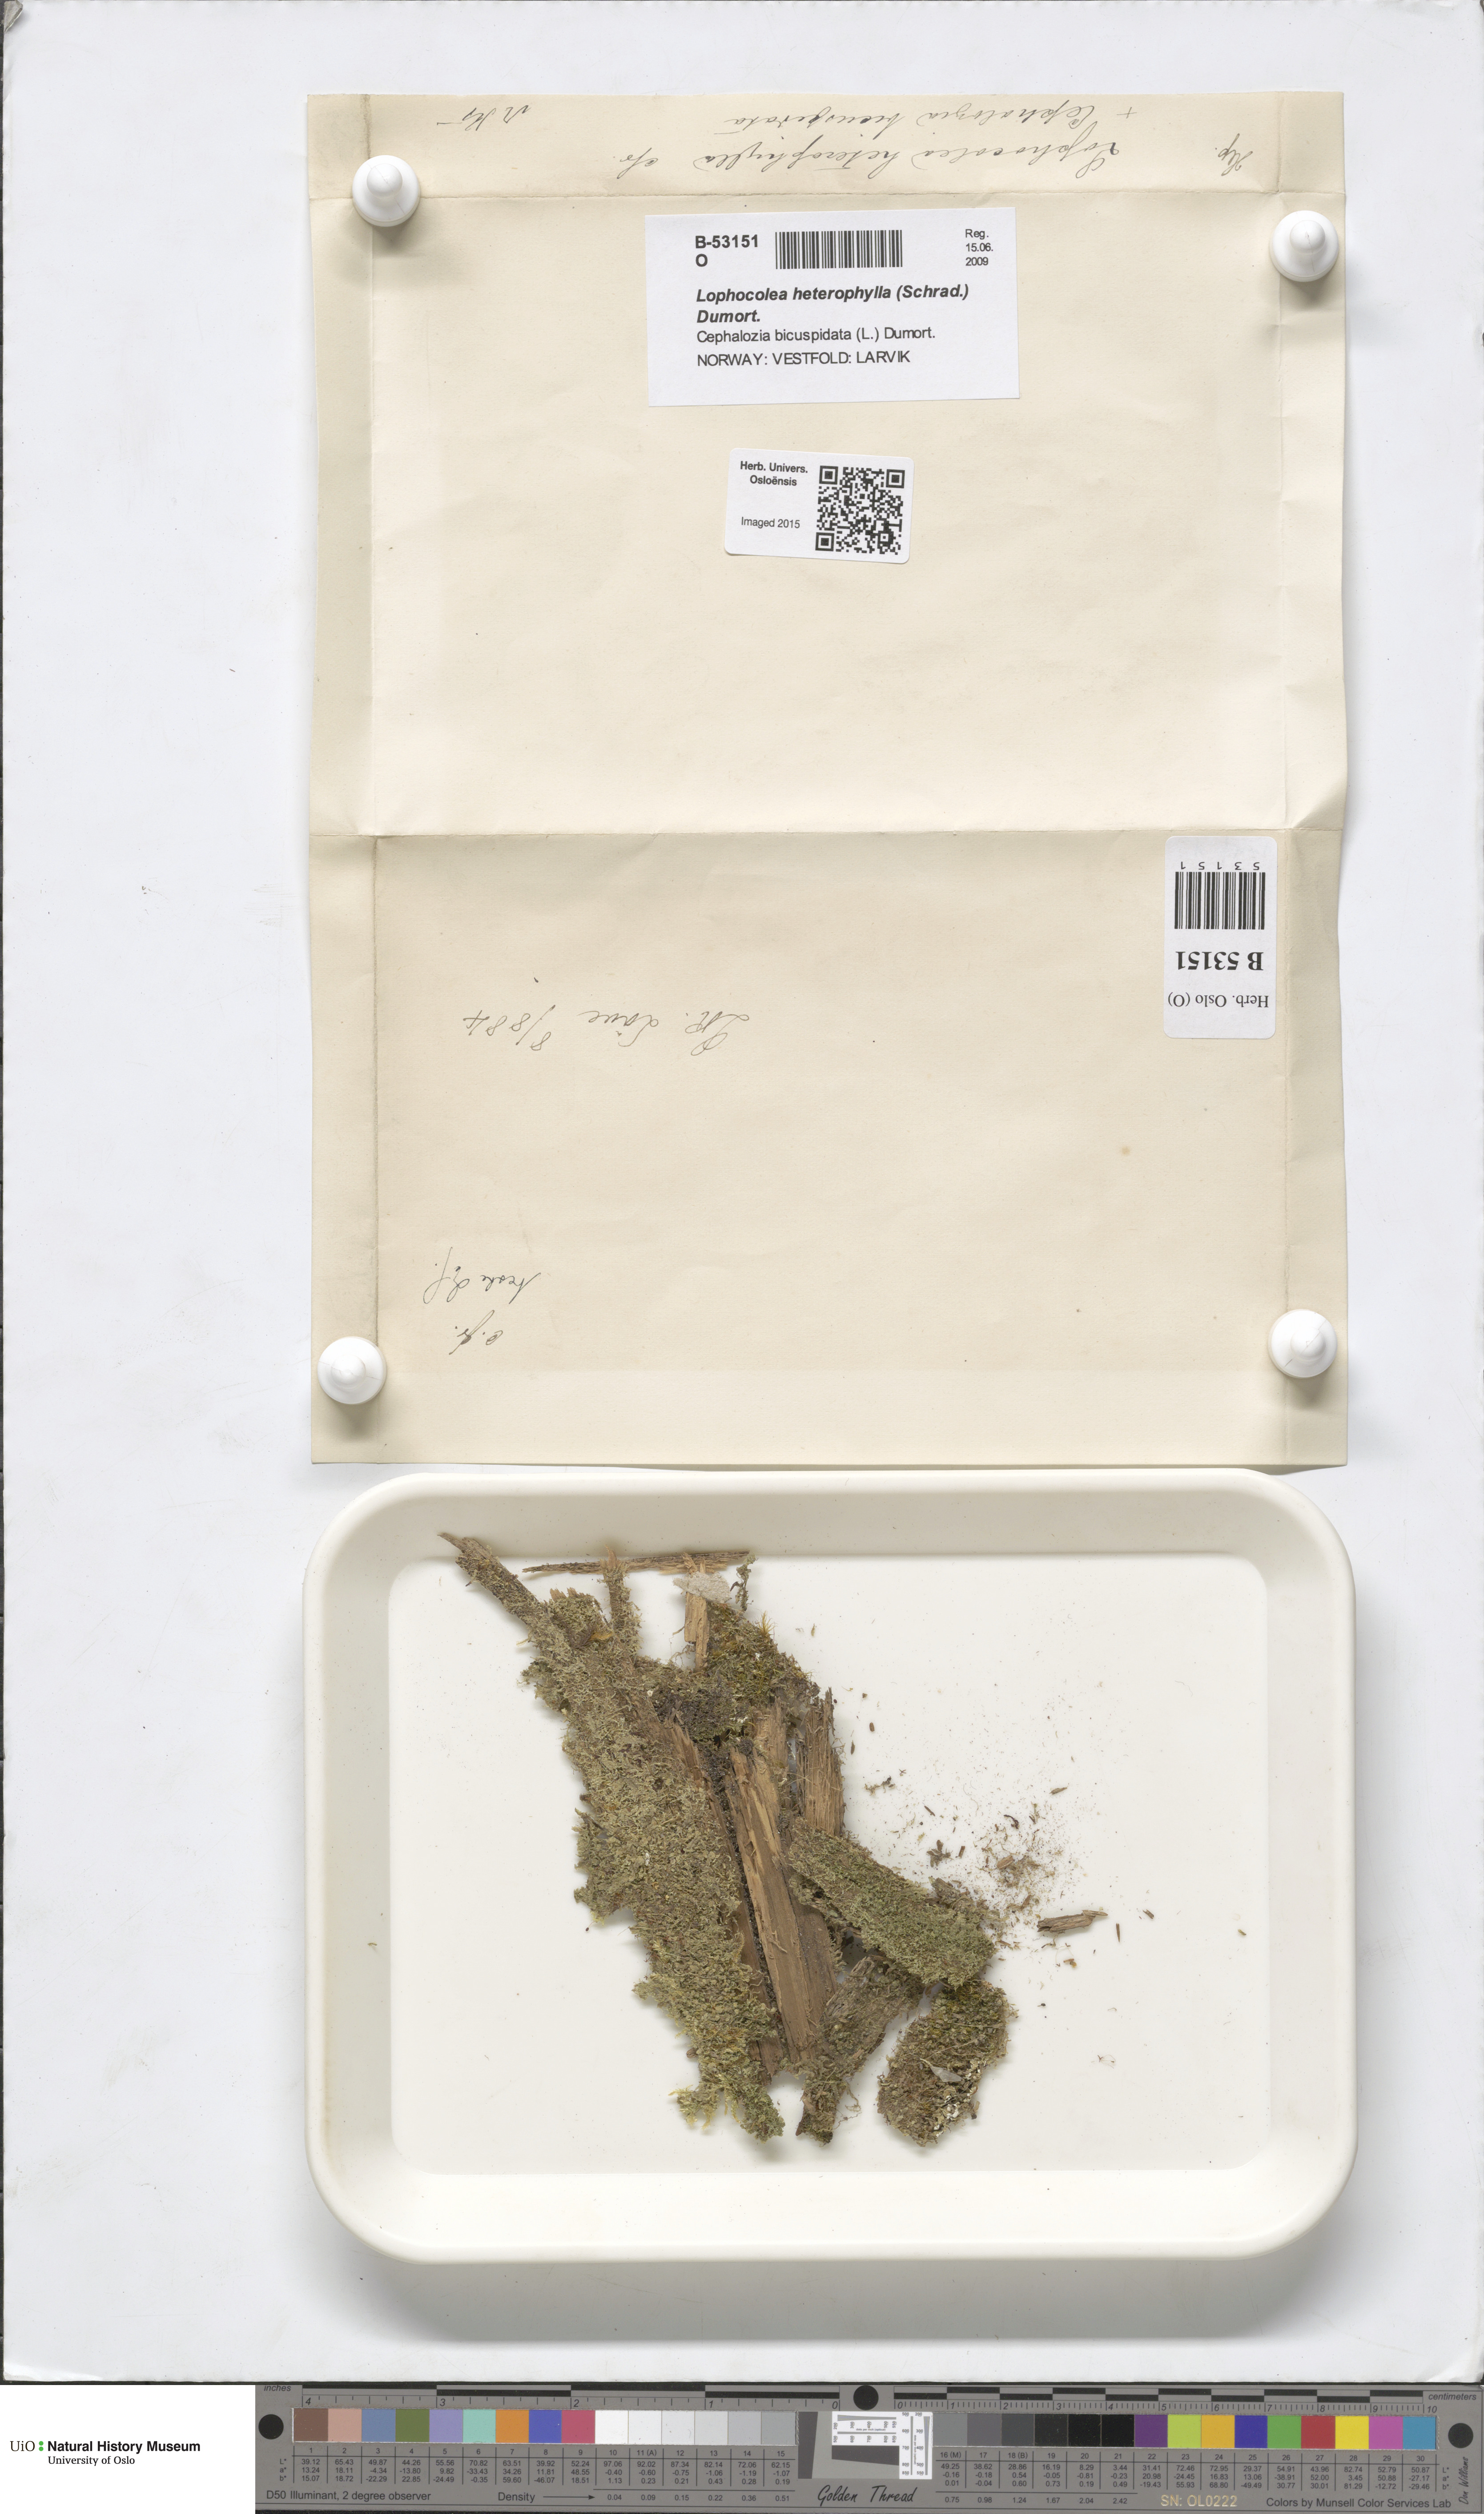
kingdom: Plantae
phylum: Marchantiophyta
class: Jungermanniopsida
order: Jungermanniales
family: Lophocoleaceae
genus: Lophocolea
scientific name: Lophocolea heterophylla
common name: Variable-leaved crestwort
